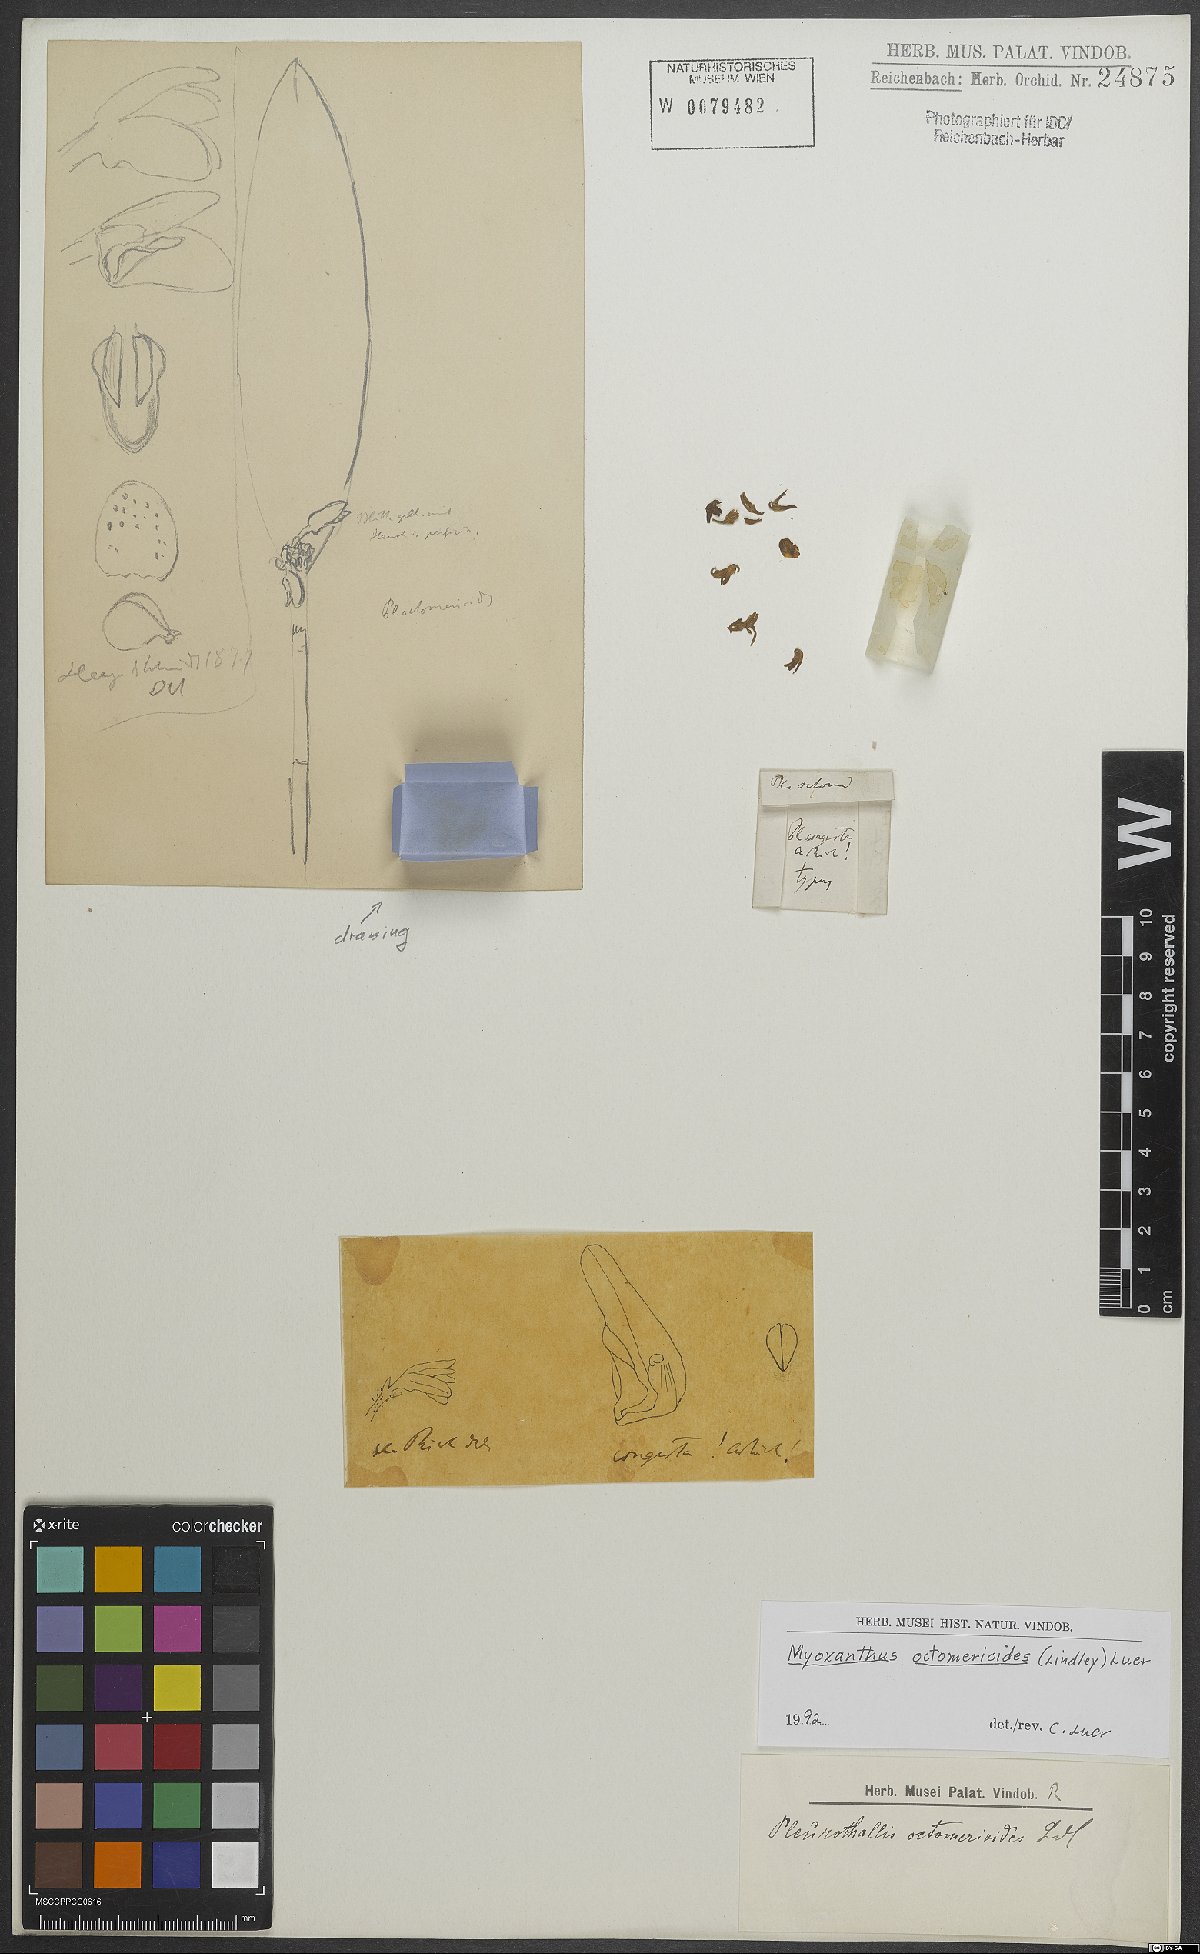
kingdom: Plantae
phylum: Tracheophyta
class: Liliopsida
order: Asparagales
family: Orchidaceae
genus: Myoxanthus
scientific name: Myoxanthus octomerioides
